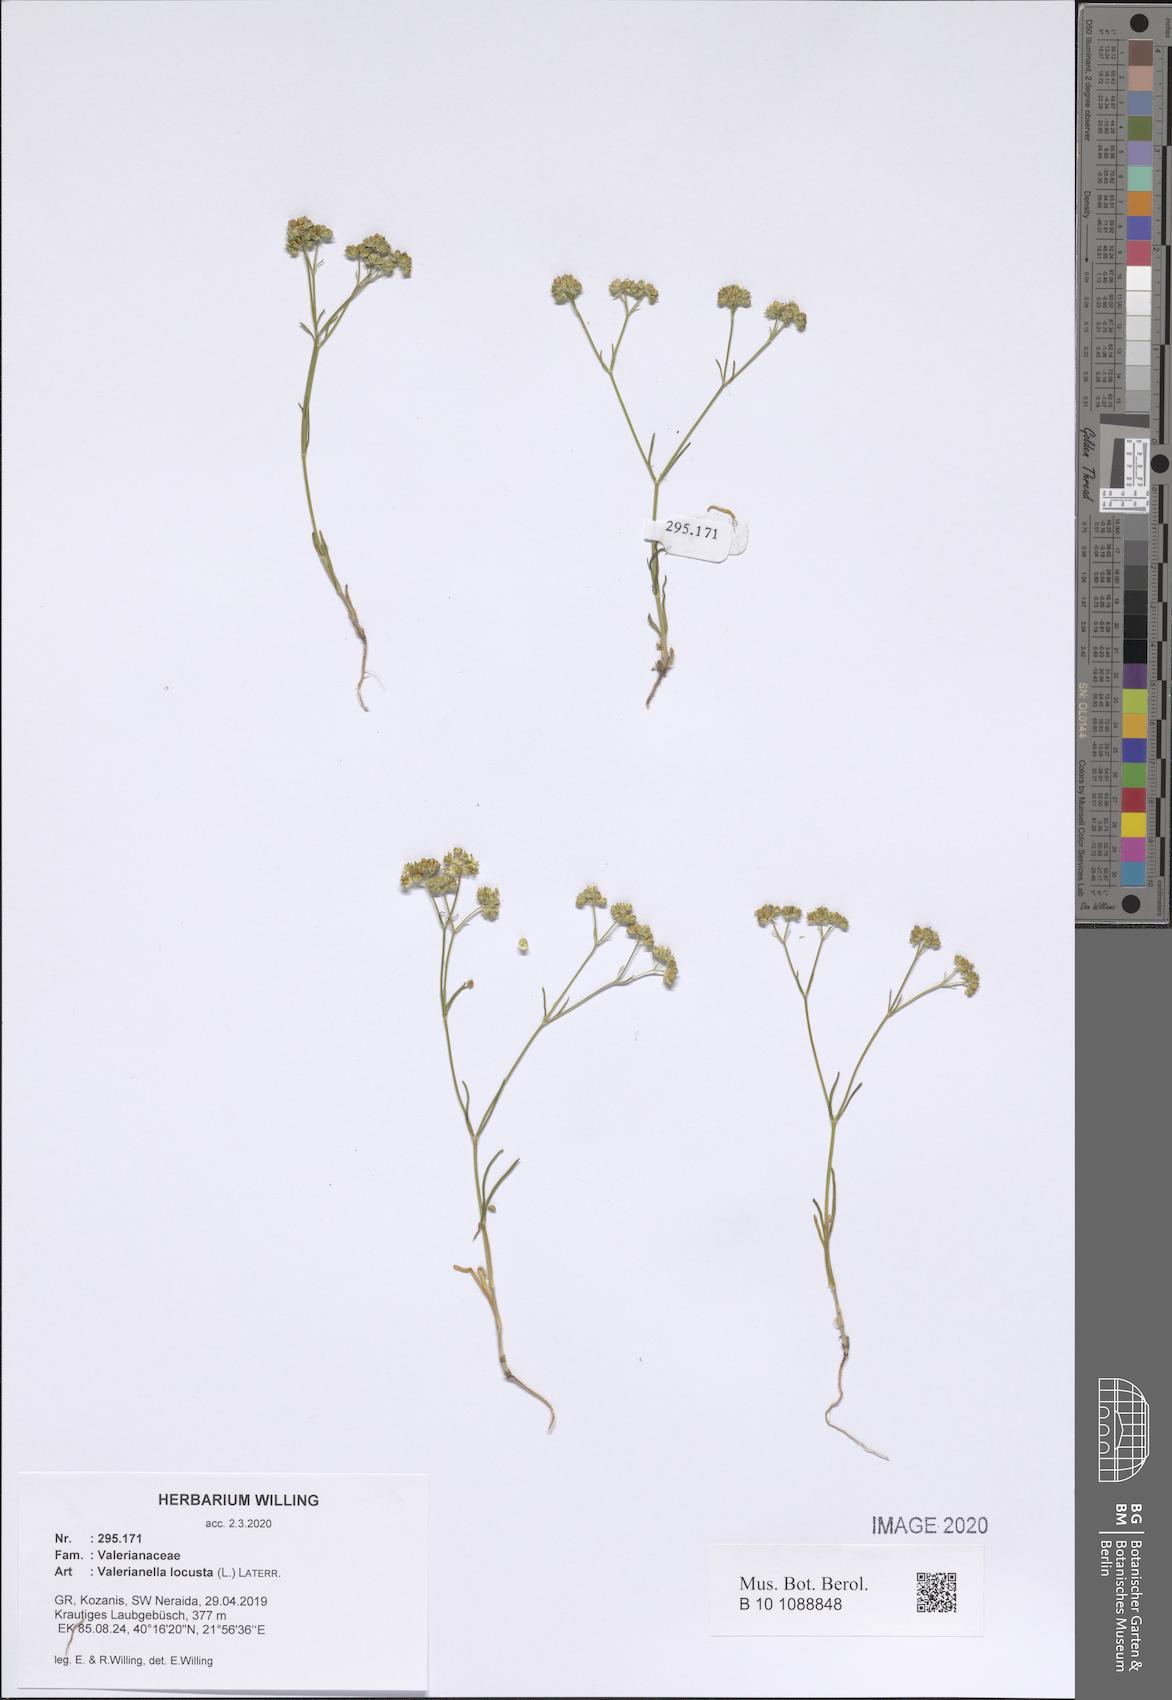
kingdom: Plantae
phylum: Tracheophyta
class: Magnoliopsida
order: Dipsacales
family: Caprifoliaceae
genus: Valerianella
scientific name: Valerianella locusta
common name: Common cornsalad
